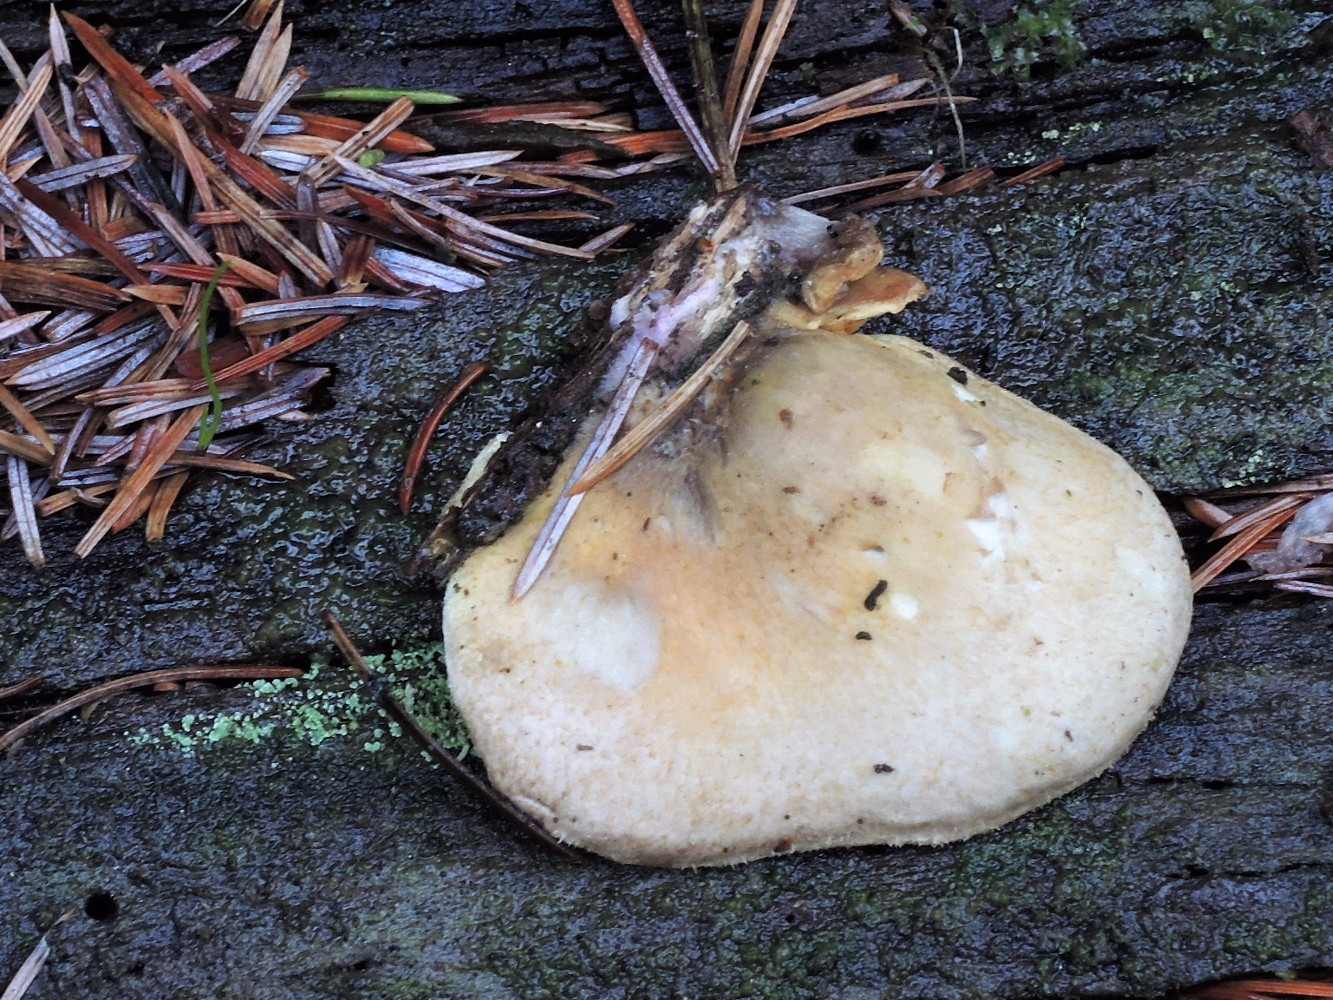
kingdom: Fungi
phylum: Basidiomycota
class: Agaricomycetes
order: Boletales
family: Tapinellaceae
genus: Tapinella
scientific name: Tapinella panuoides
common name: tømmer-viftesvamp
